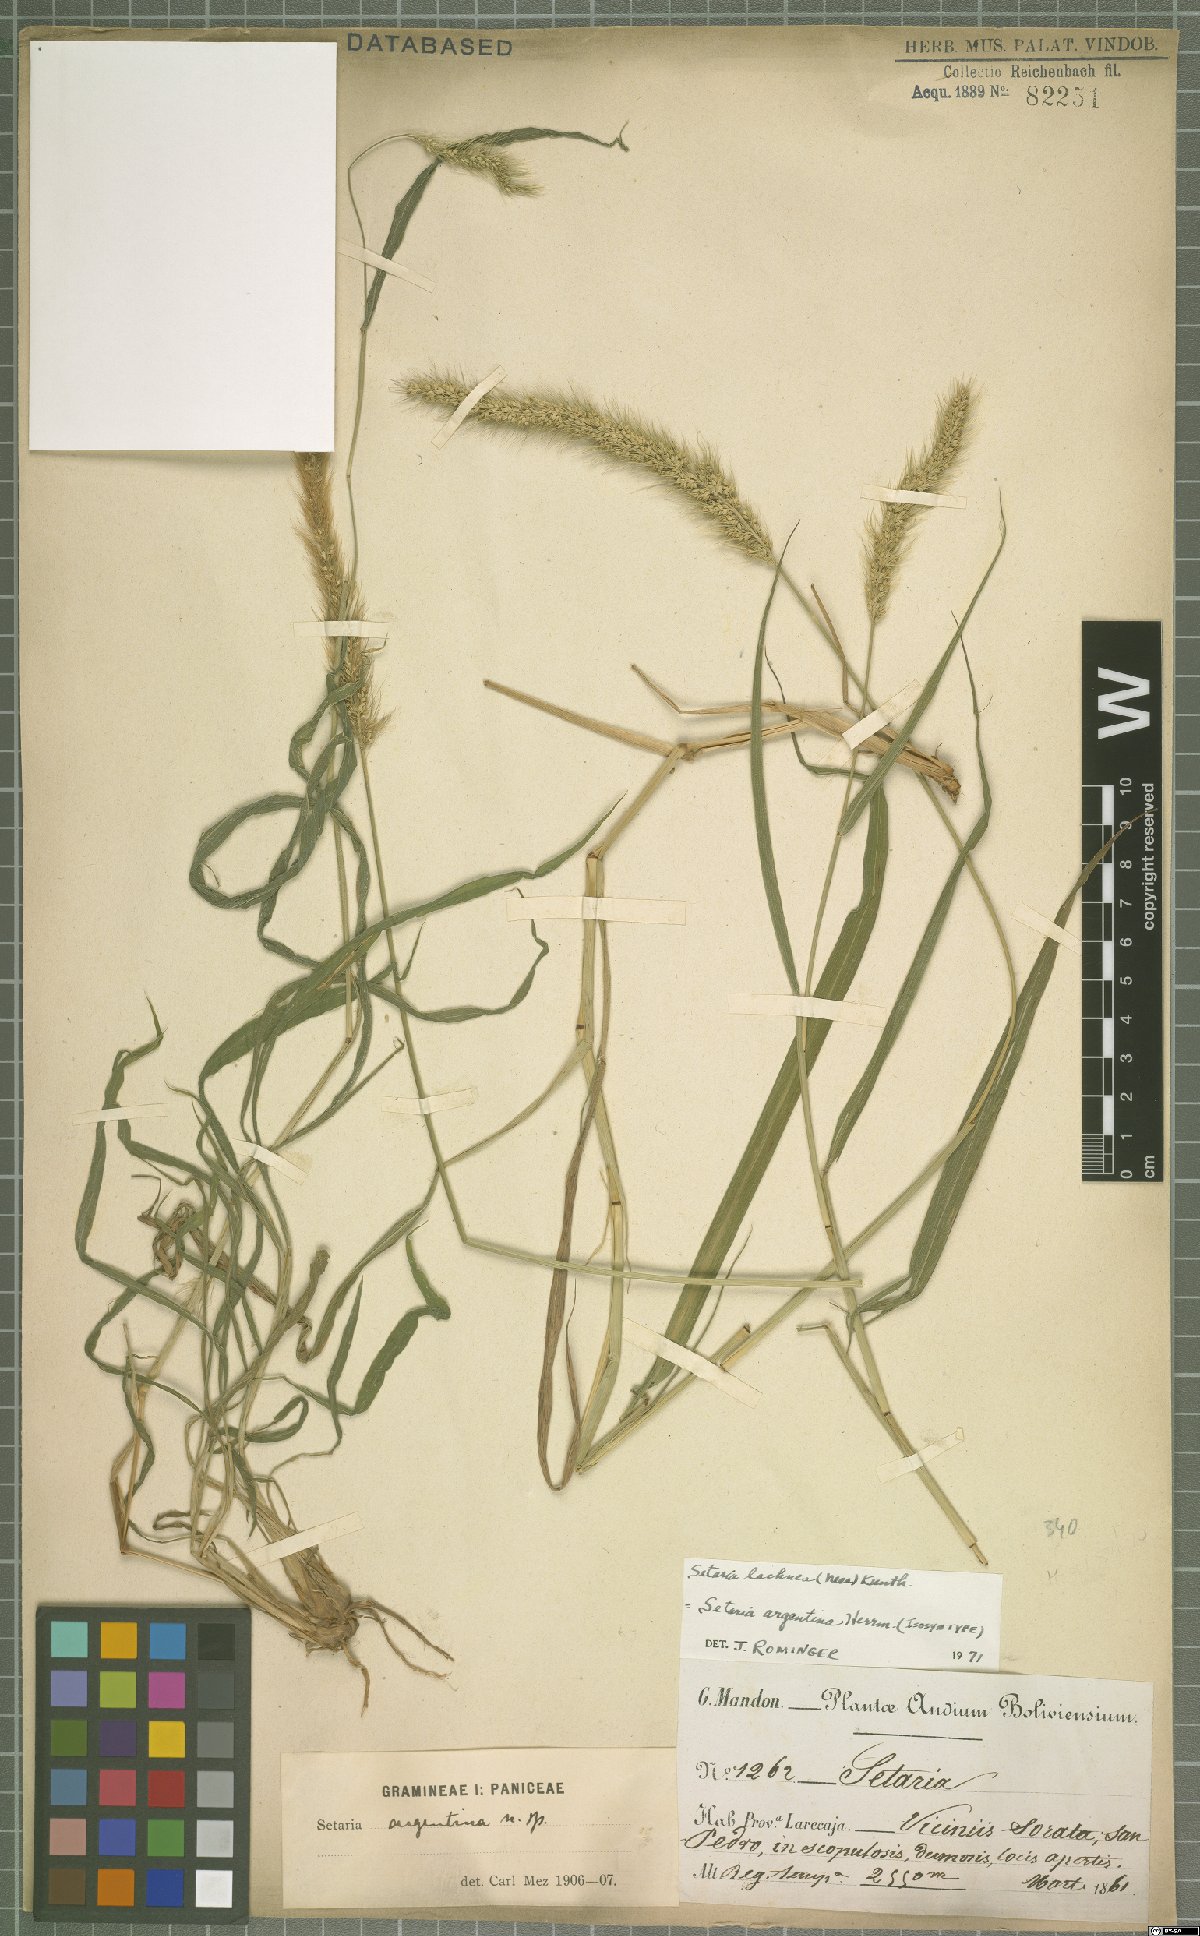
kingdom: Plantae
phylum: Tracheophyta
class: Liliopsida
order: Poales
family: Poaceae
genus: Setaria
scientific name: Setaria lachnea
